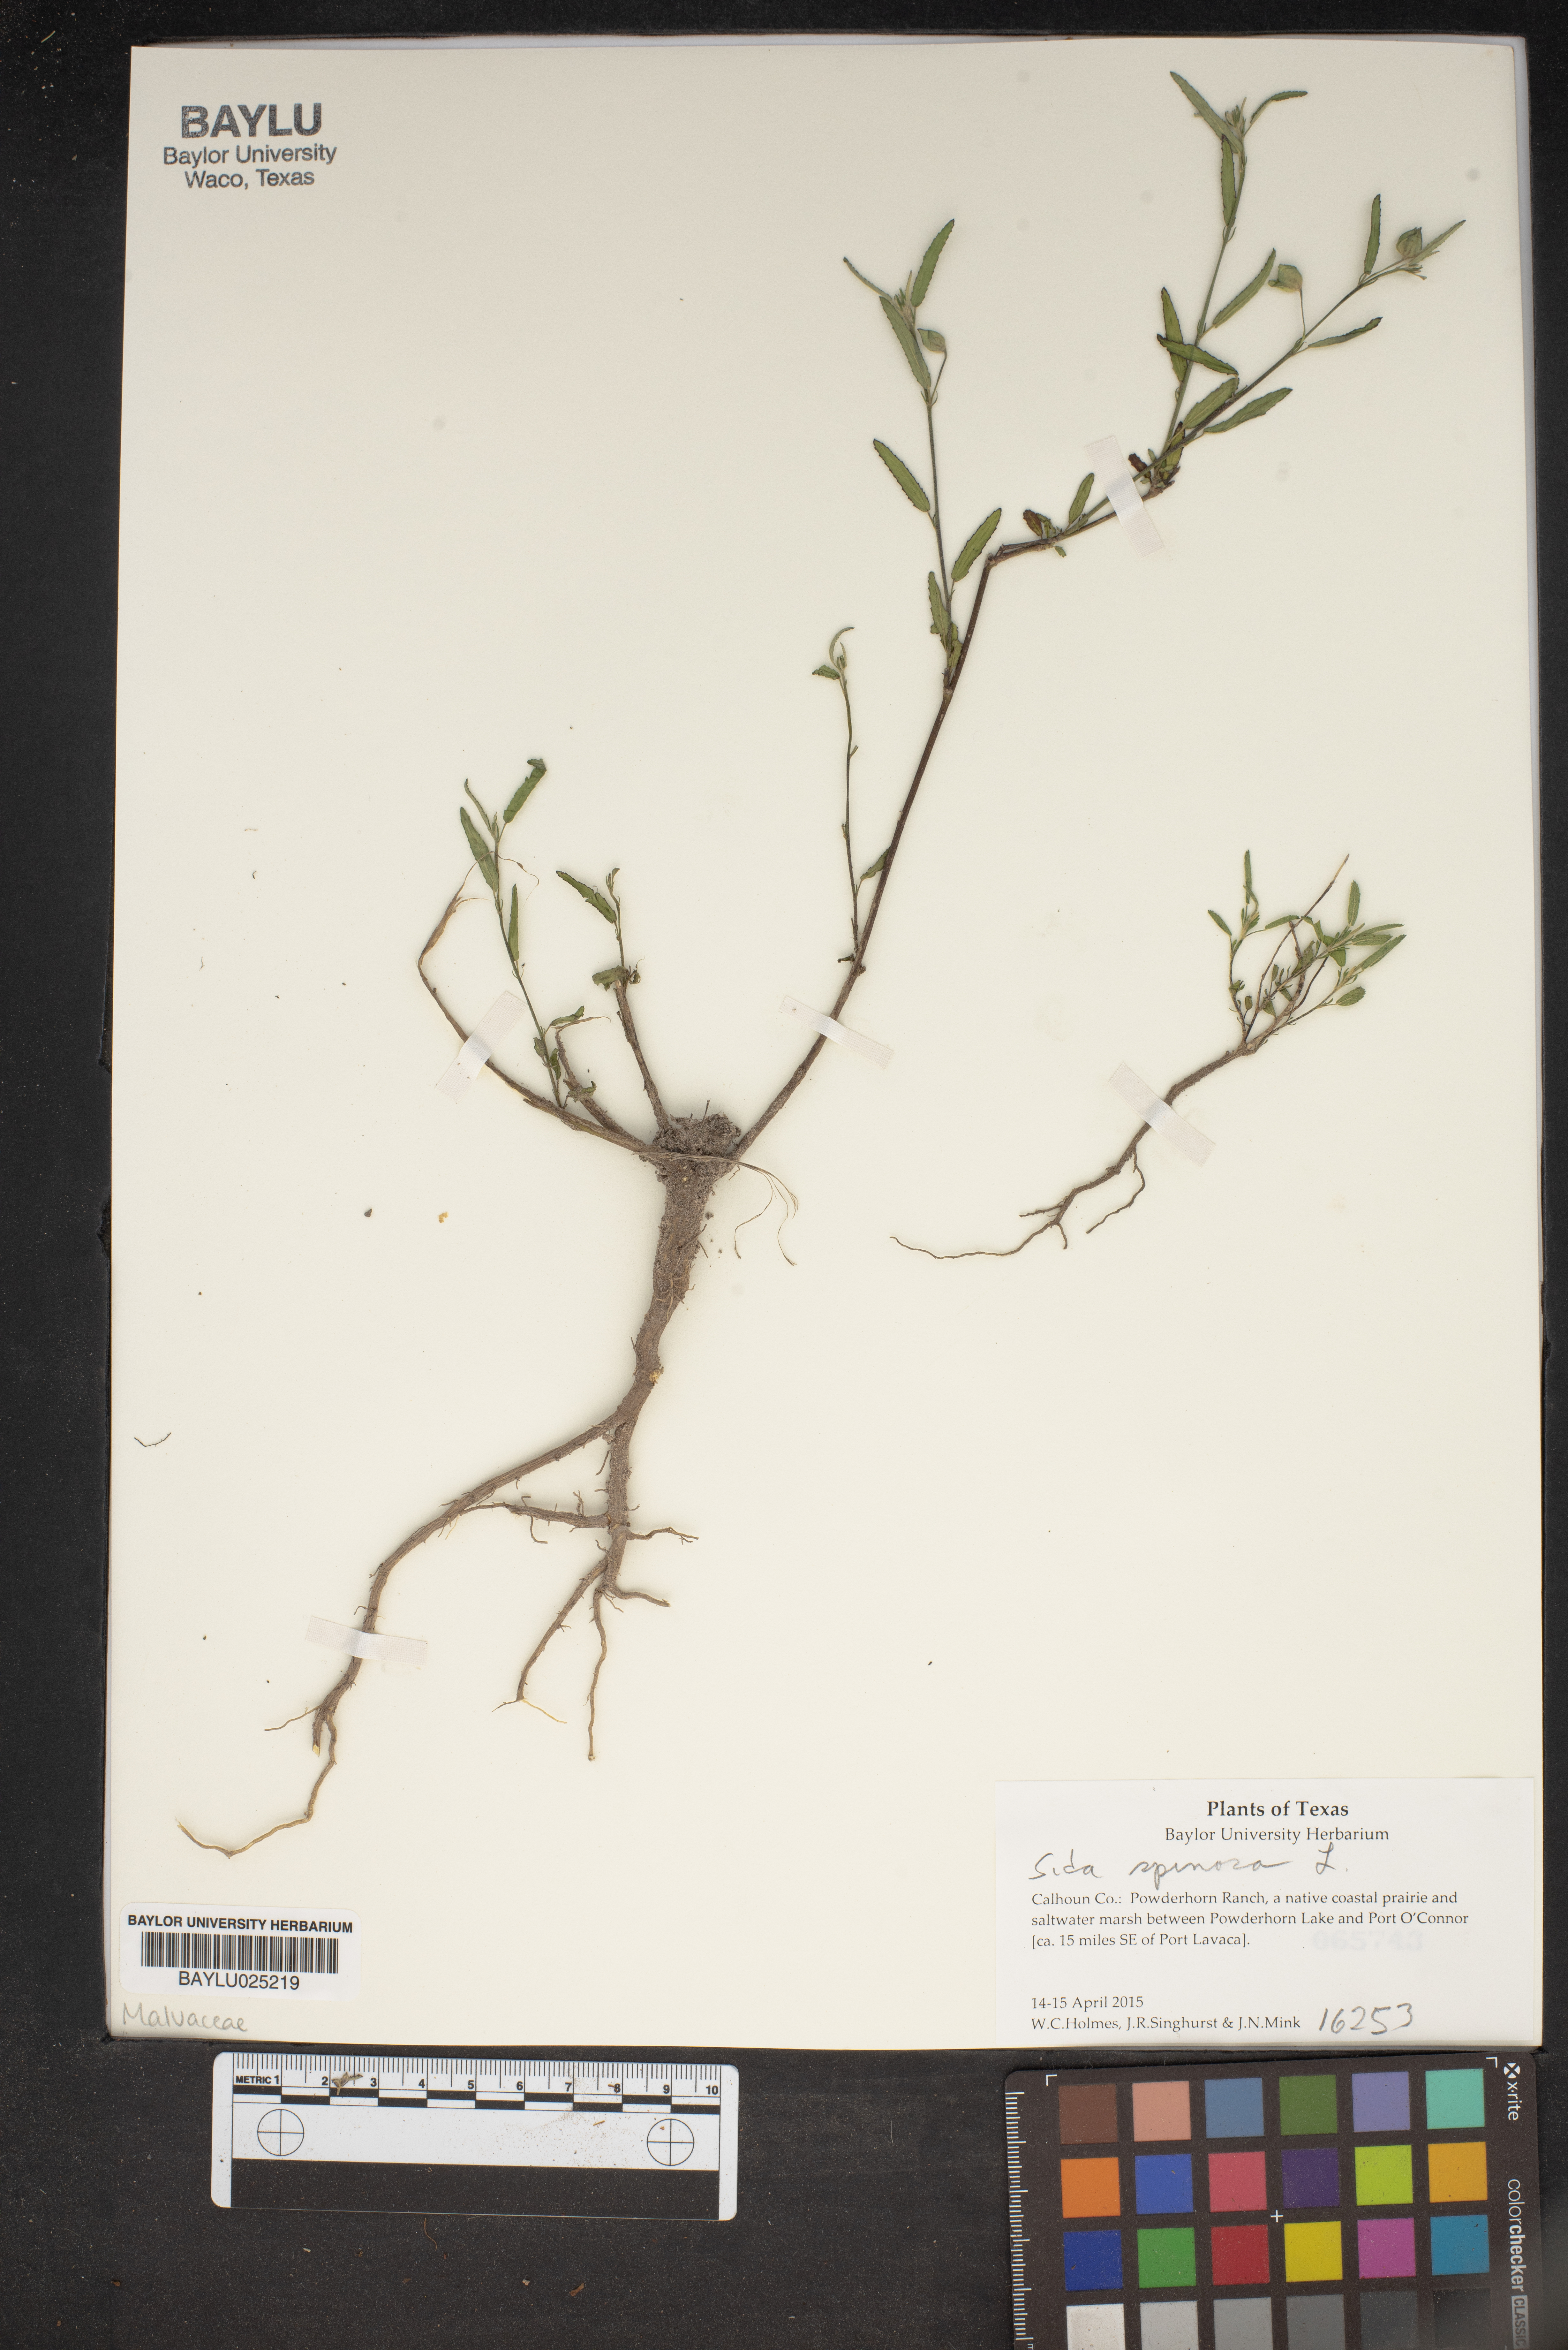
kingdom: Plantae
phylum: Tracheophyta
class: Magnoliopsida
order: Malvales
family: Malvaceae
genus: Sida
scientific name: Sida spinosa
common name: Prickly fanpetals
